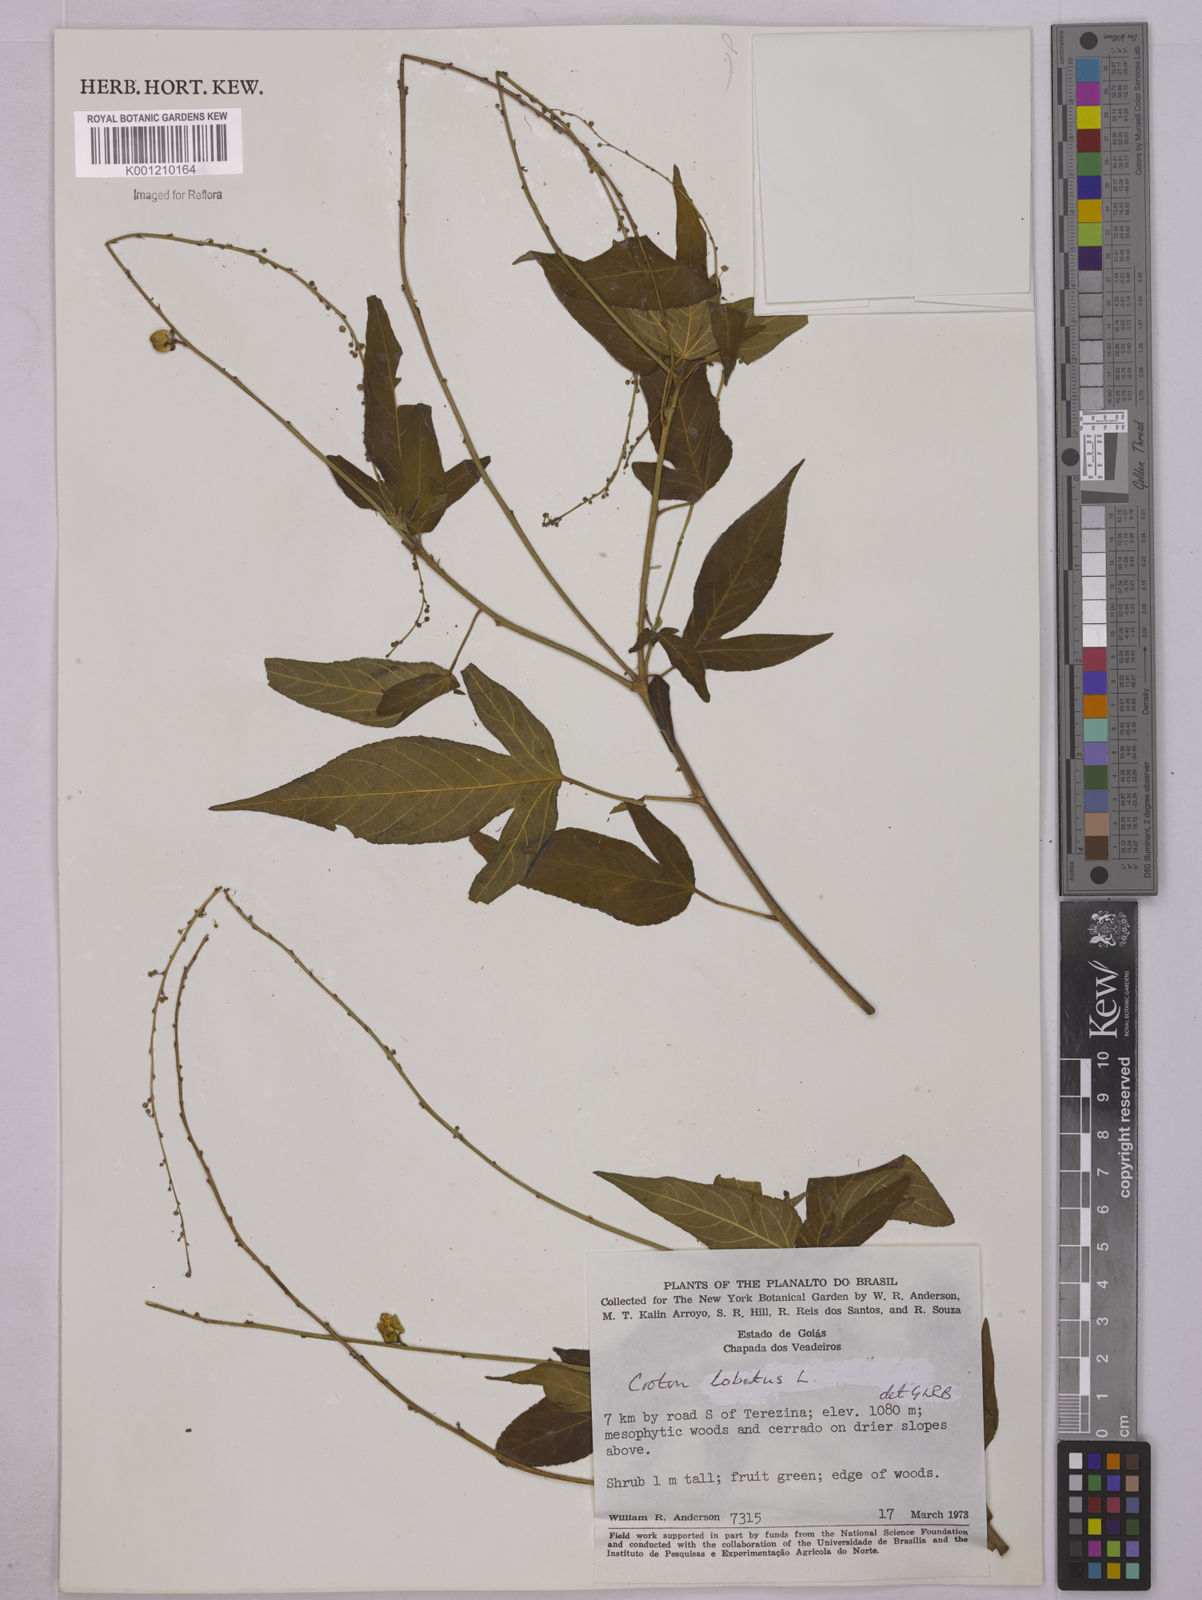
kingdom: Plantae
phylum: Tracheophyta
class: Magnoliopsida
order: Malpighiales
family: Euphorbiaceae
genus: Astraea
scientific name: Astraea lobata
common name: Lobed croton
